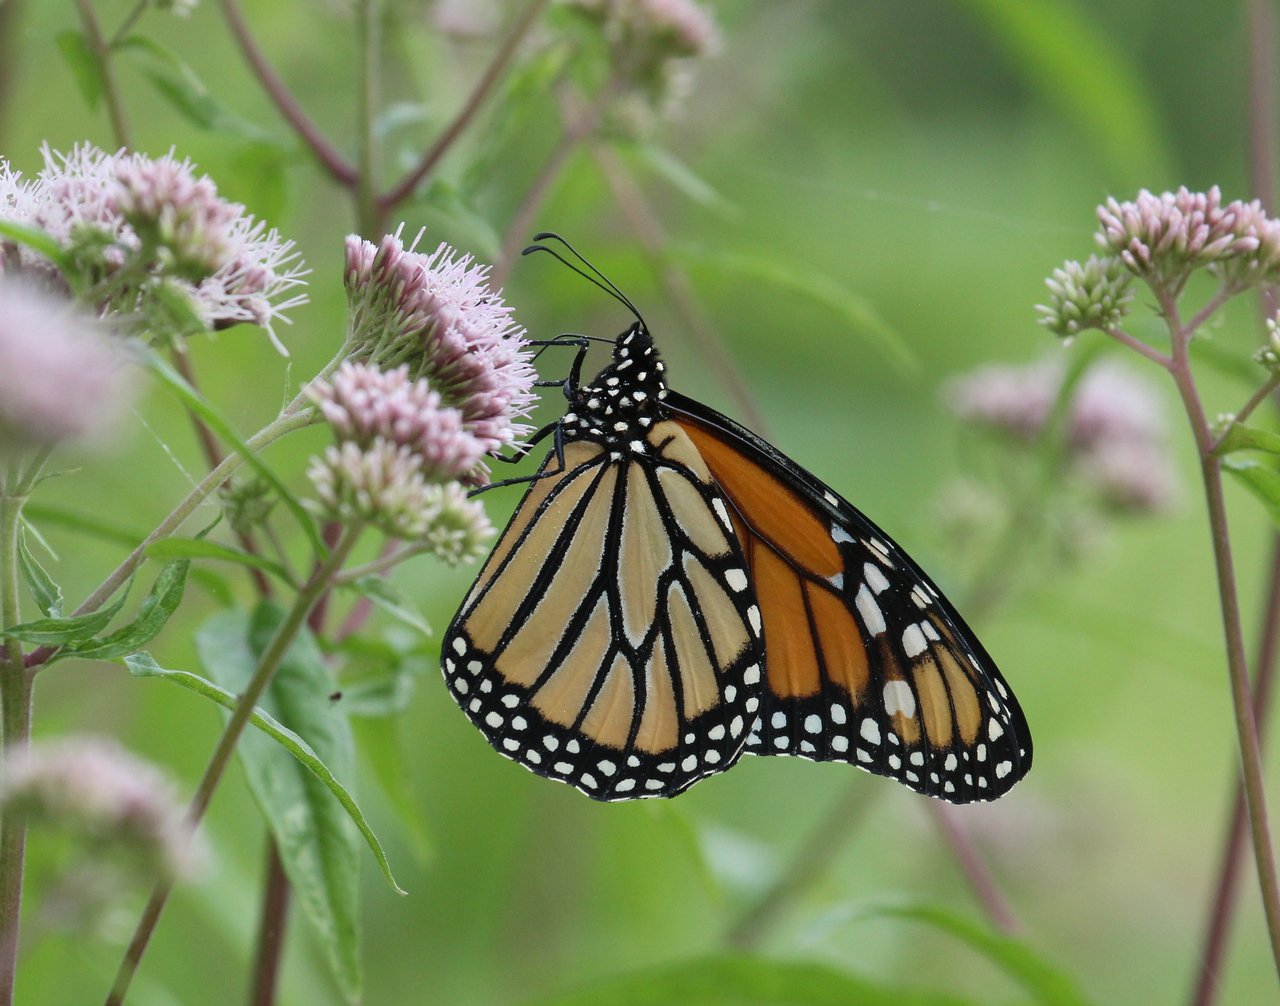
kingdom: Animalia
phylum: Arthropoda
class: Insecta
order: Lepidoptera
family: Nymphalidae
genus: Danaus
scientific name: Danaus plexippus
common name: Monarch
